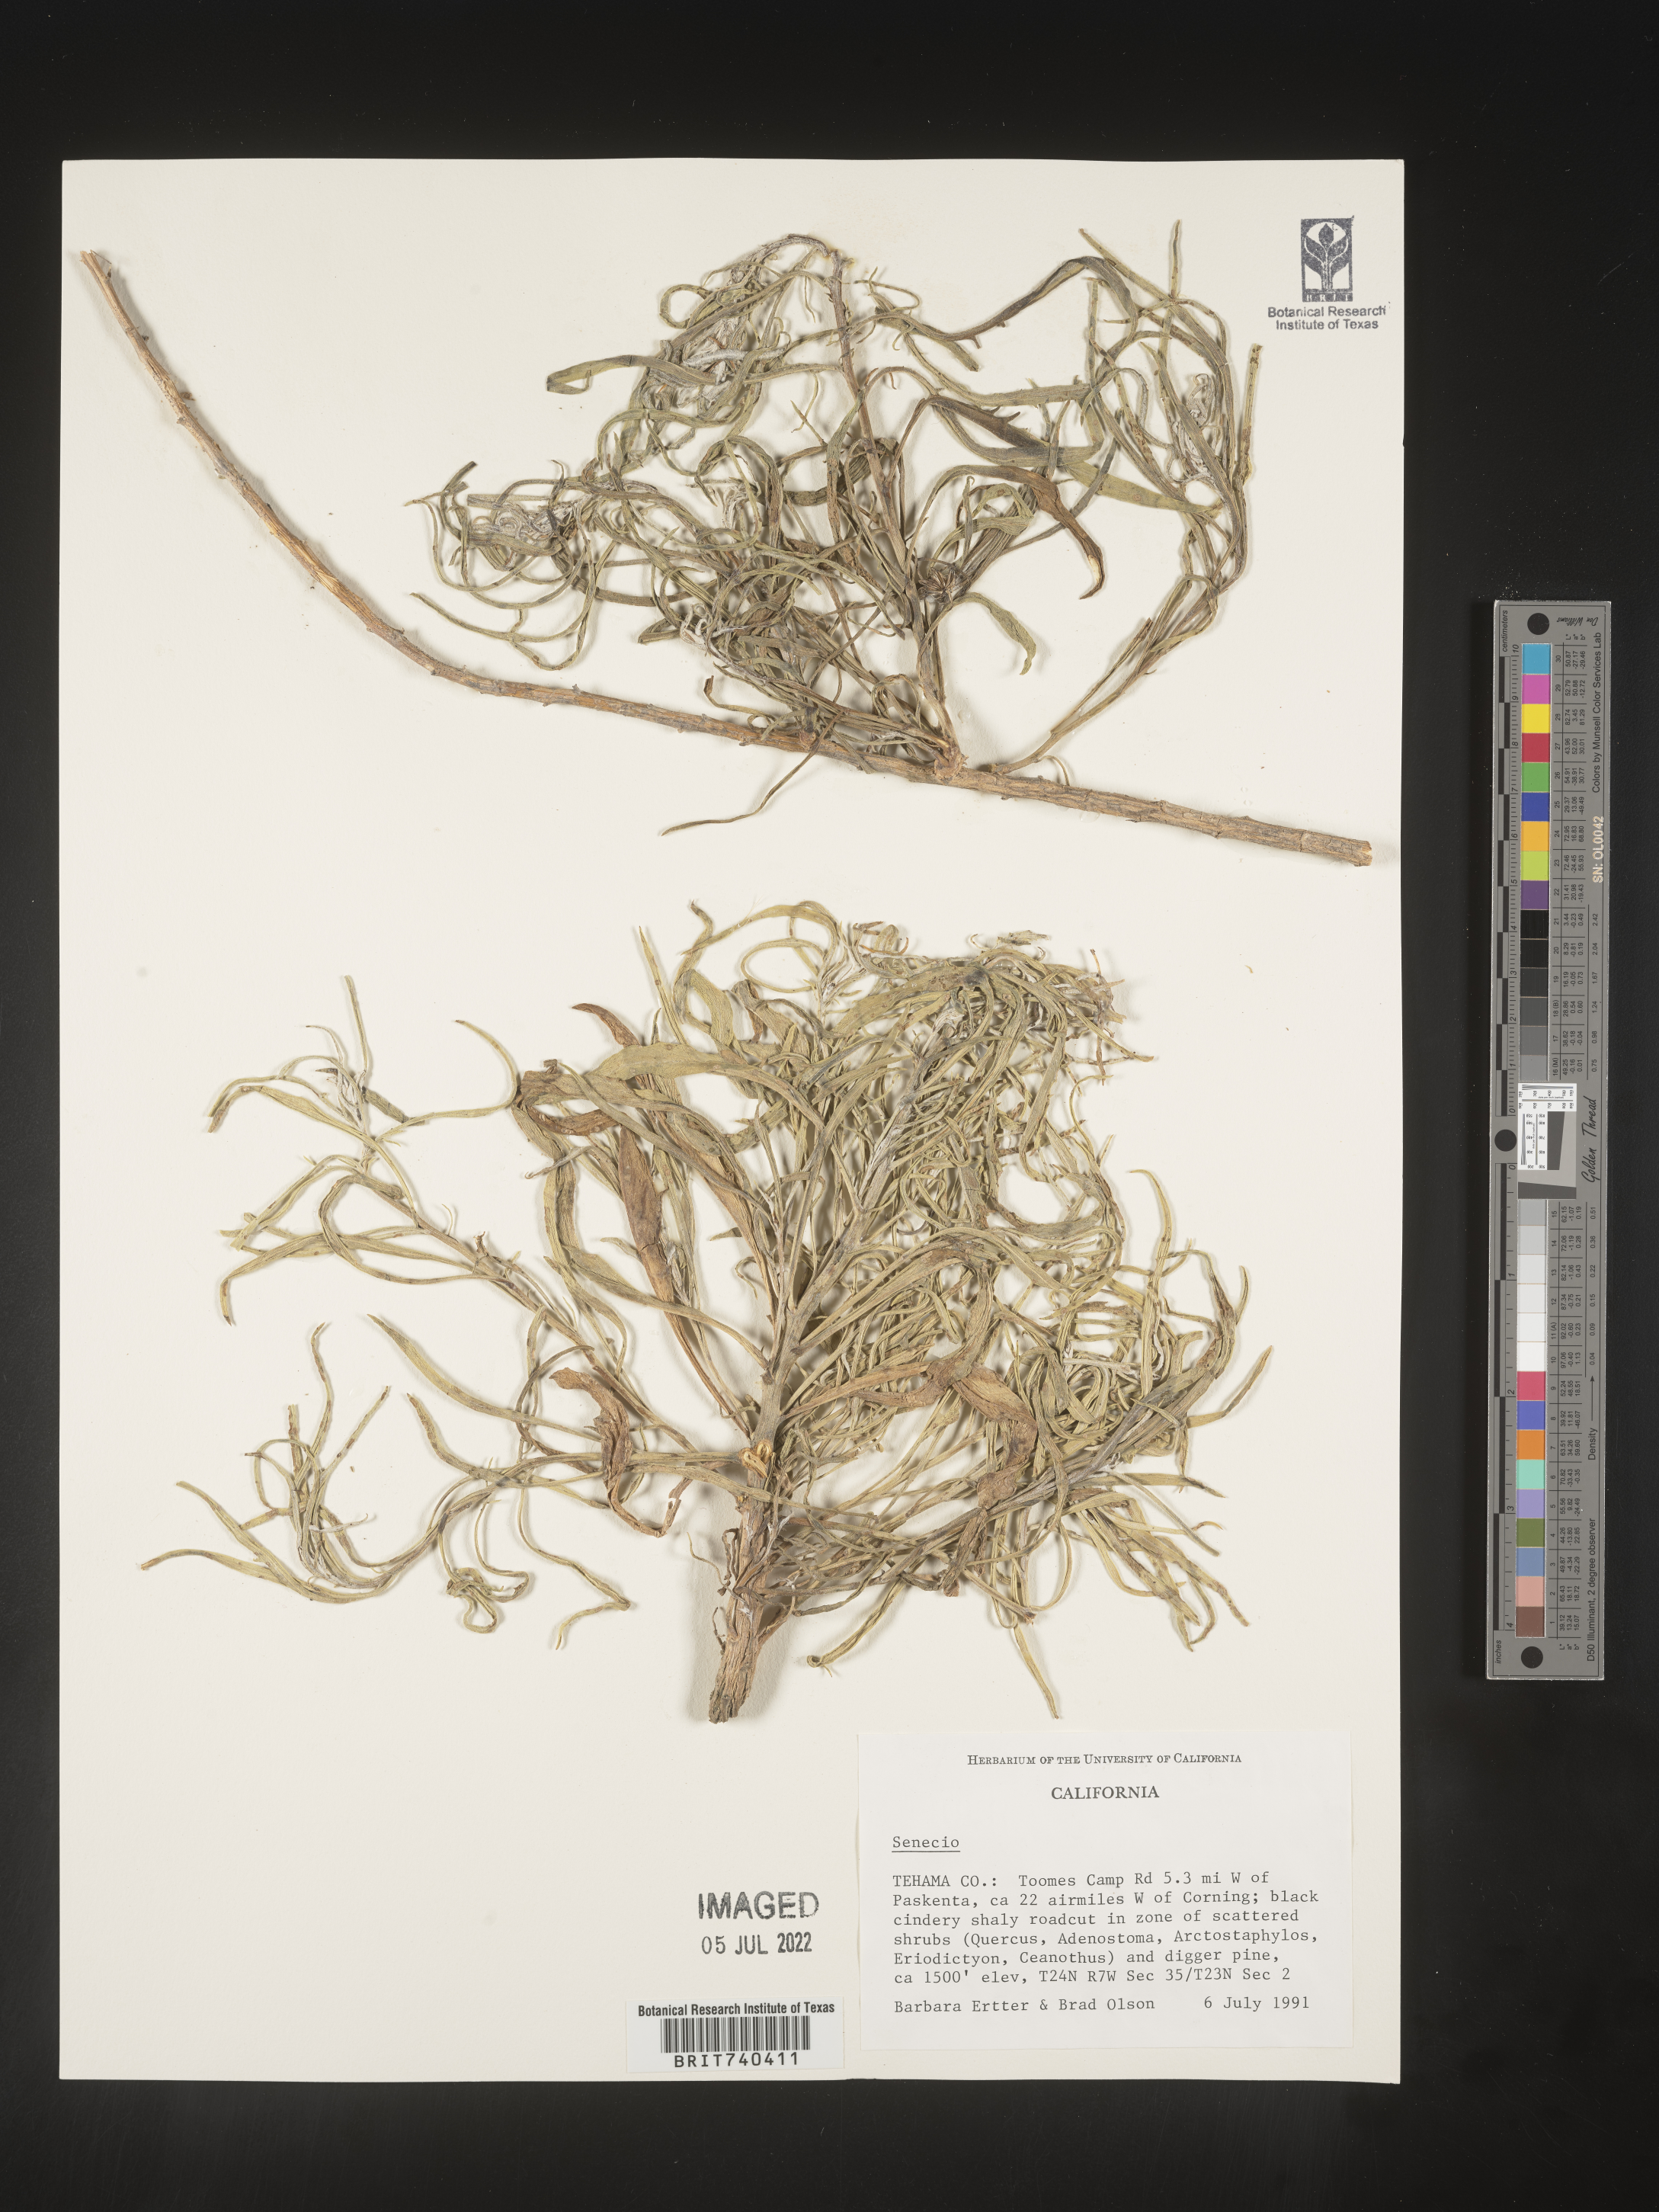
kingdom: Plantae
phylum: Tracheophyta
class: Magnoliopsida
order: Asterales
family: Asteraceae
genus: Senecio
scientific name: Senecio flaccidus
